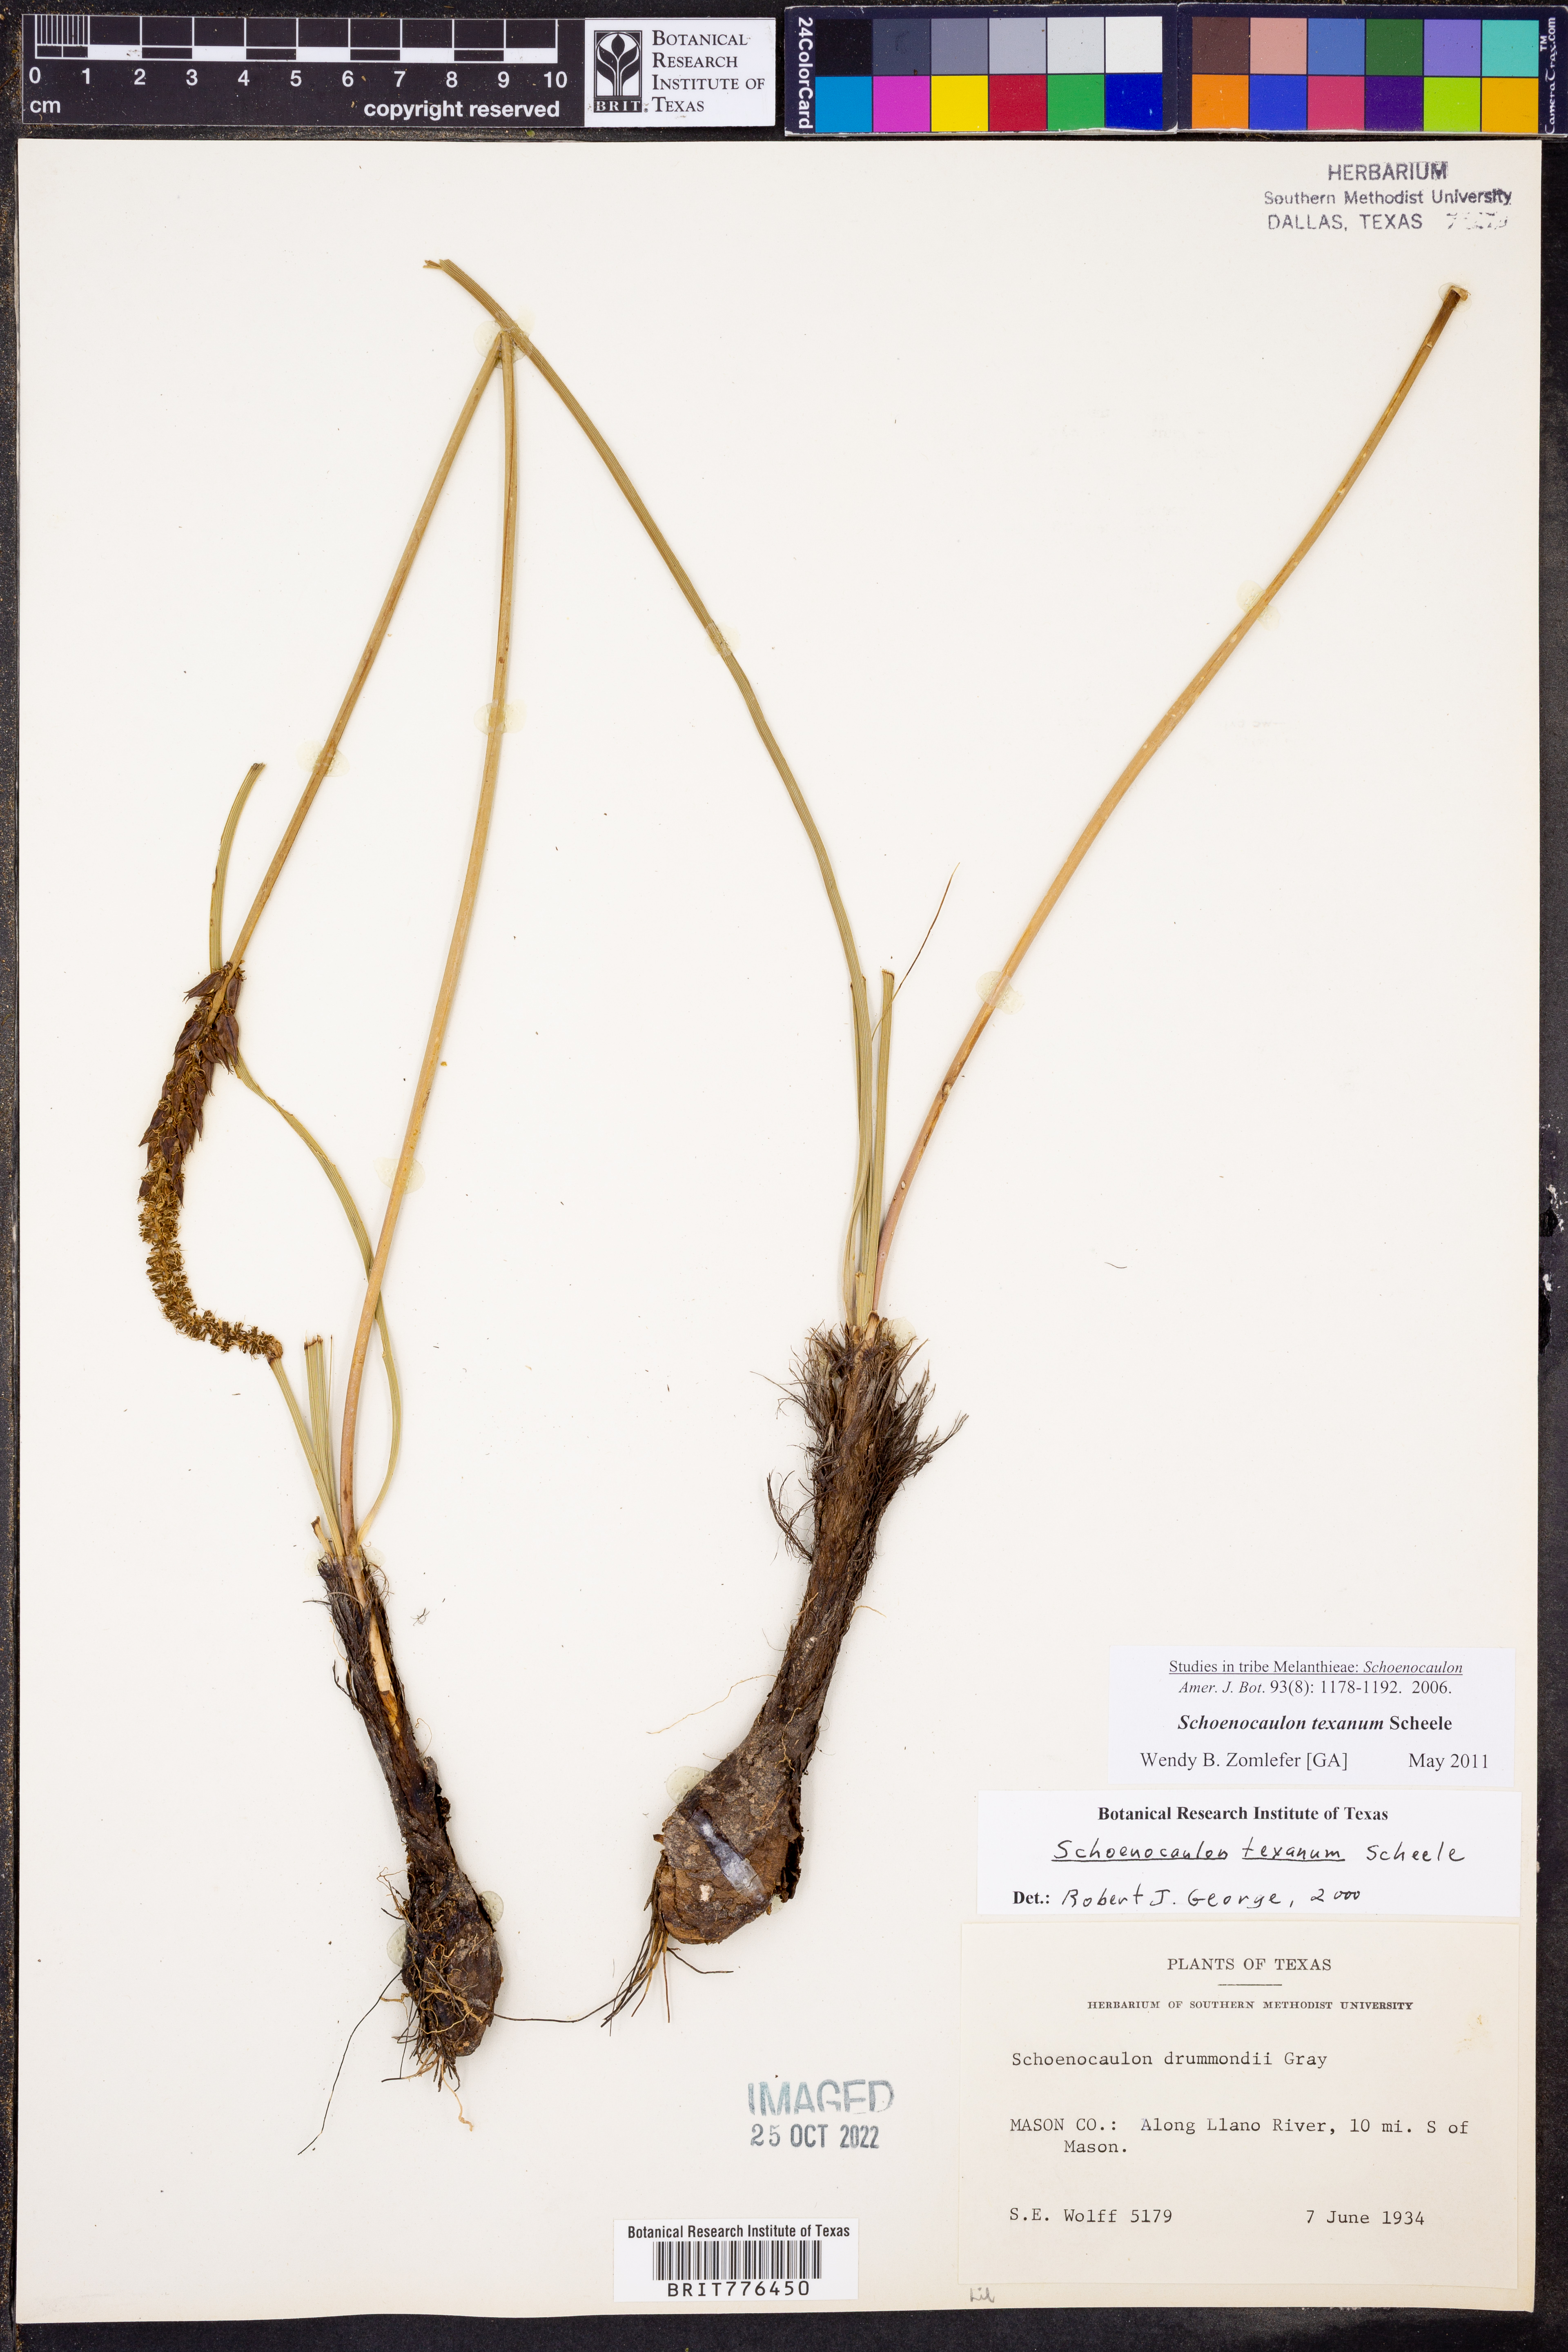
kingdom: Plantae
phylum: Tracheophyta
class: Liliopsida
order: Liliales
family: Melanthiaceae
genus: Schoenocaulon
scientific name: Schoenocaulon texanum
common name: Texas feather-shank
